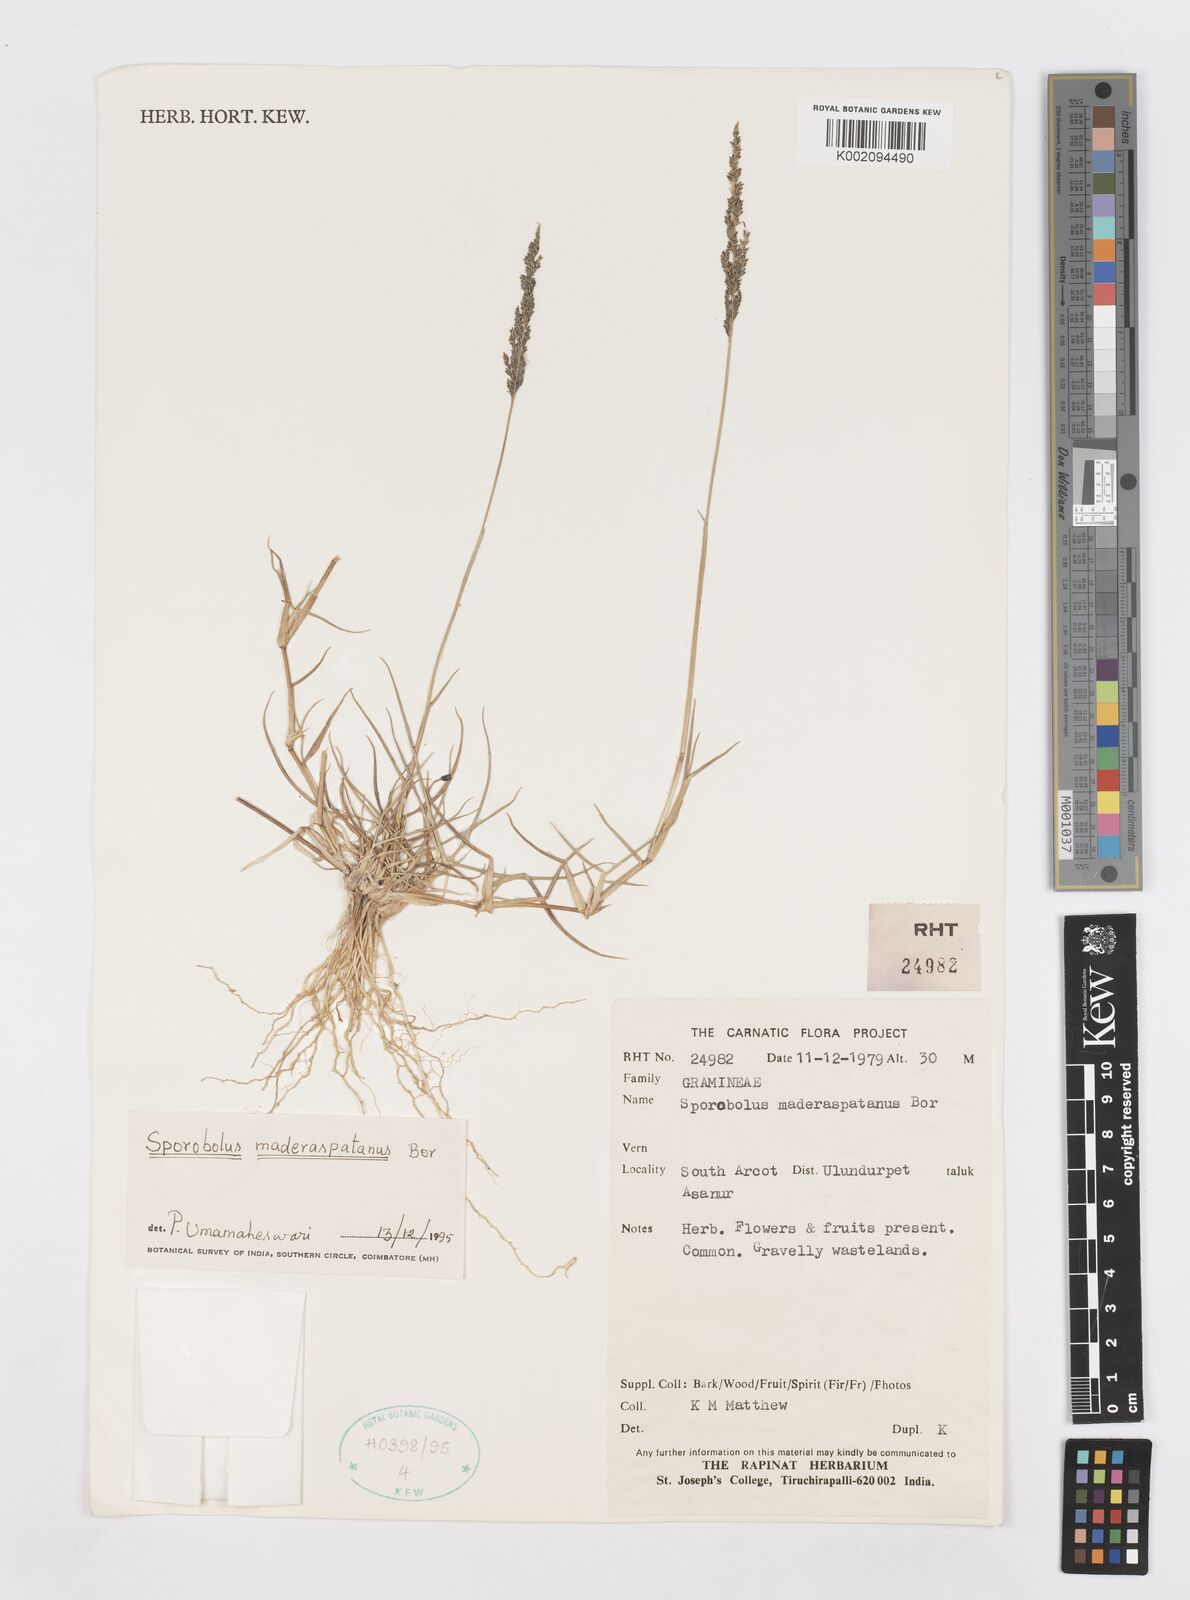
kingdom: Plantae
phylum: Tracheophyta
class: Liliopsida
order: Poales
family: Poaceae
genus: Sporobolus
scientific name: Sporobolus maderaspatanus
